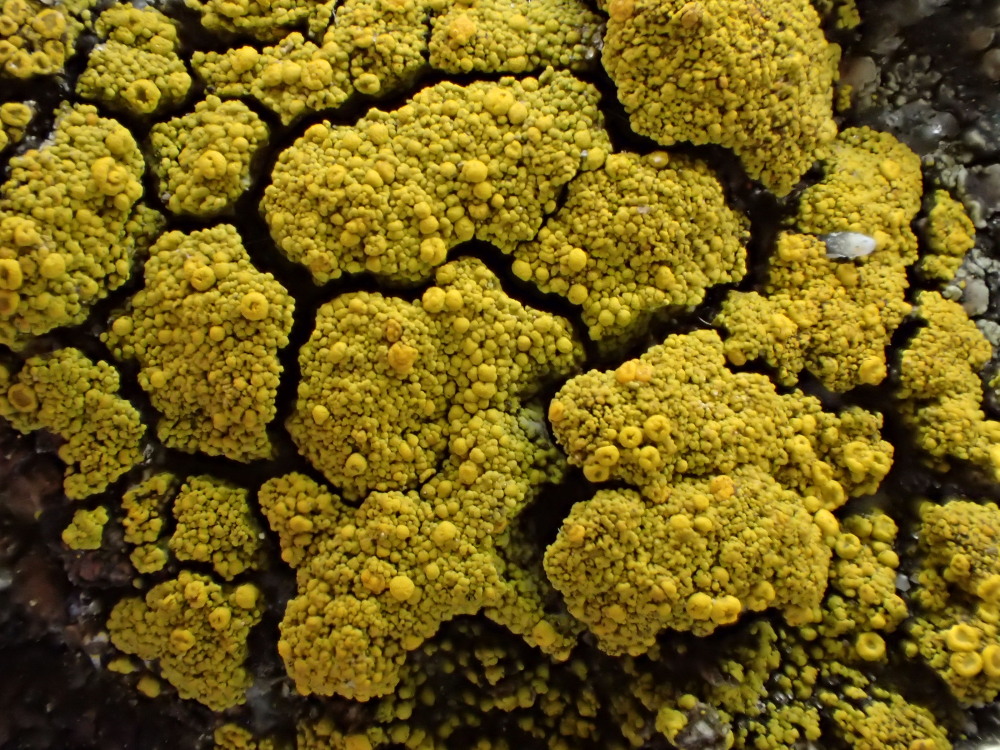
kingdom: Fungi
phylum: Ascomycota
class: Candelariomycetes
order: Candelariales
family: Candelariaceae
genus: Candelariella
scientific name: Candelariella vitellina
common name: almindelig æggeblommelav
